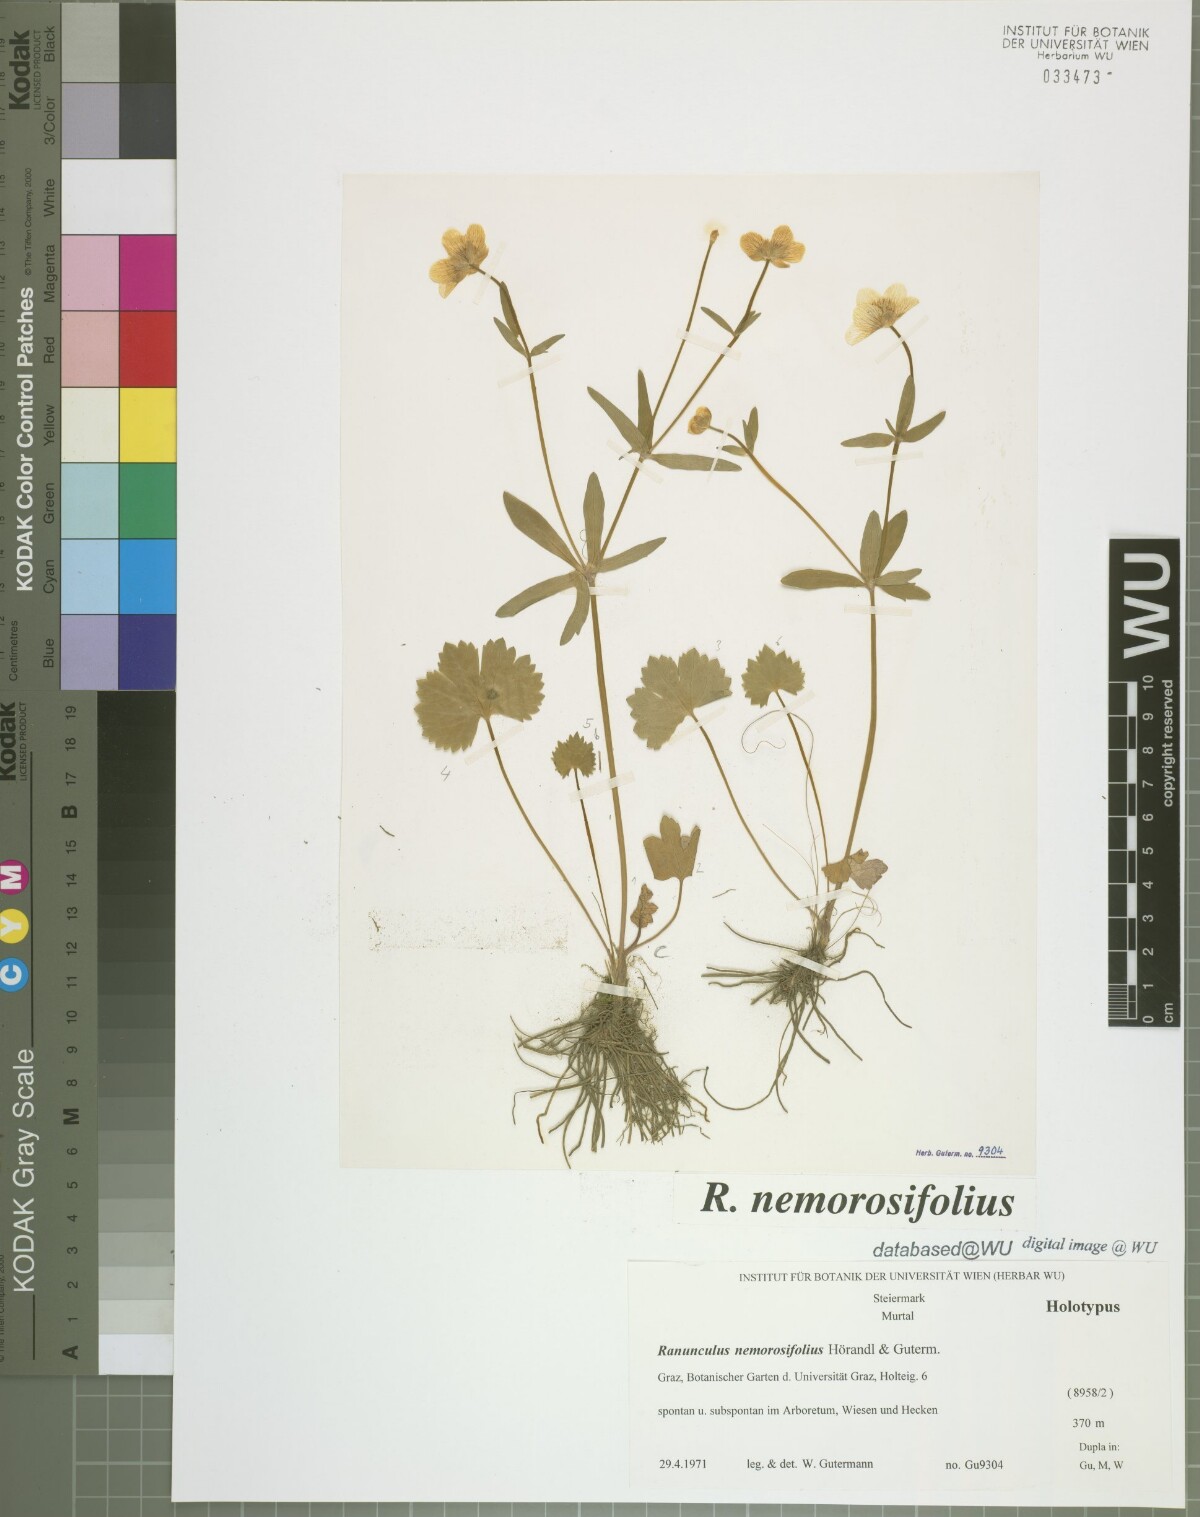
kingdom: Plantae
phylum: Tracheophyta
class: Magnoliopsida
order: Ranunculales
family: Ranunculaceae
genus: Ranunculus
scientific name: Ranunculus nemorosifolius
